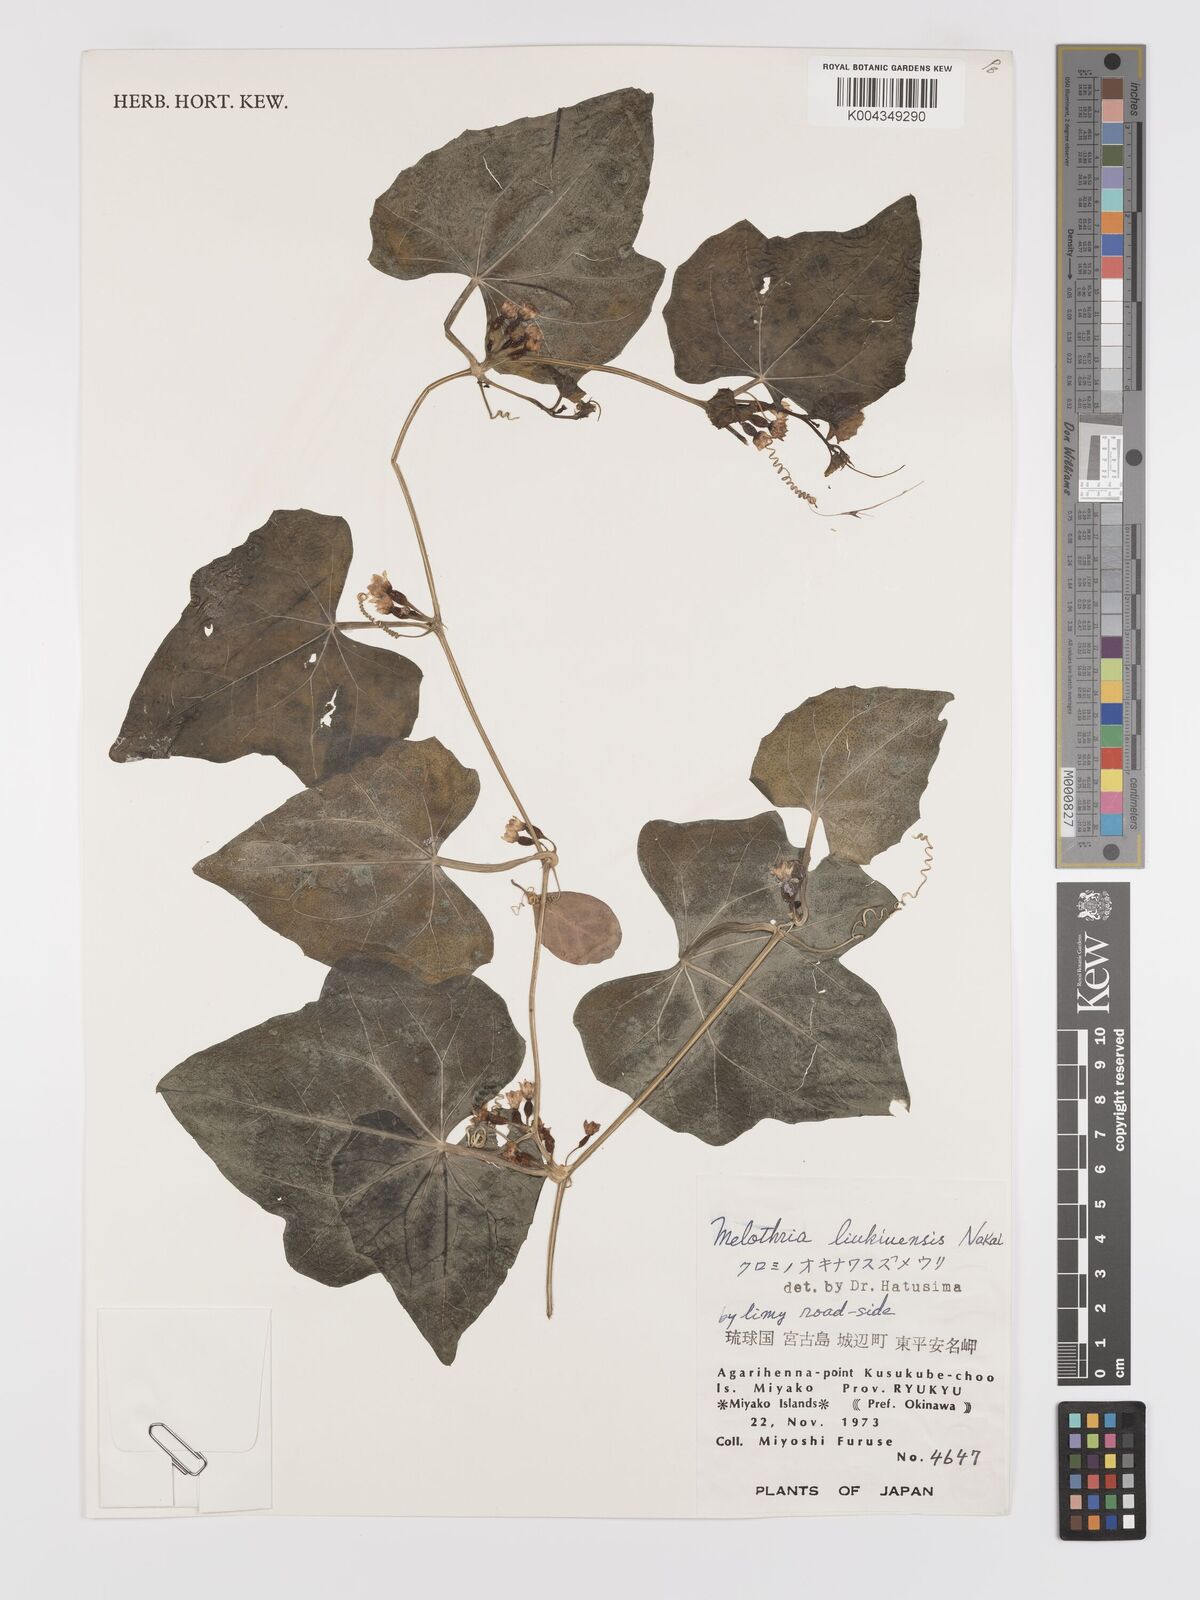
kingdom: Plantae
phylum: Tracheophyta
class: Magnoliopsida
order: Cucurbitales
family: Cucurbitaceae
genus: Zehneria
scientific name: Zehneria mucronata
